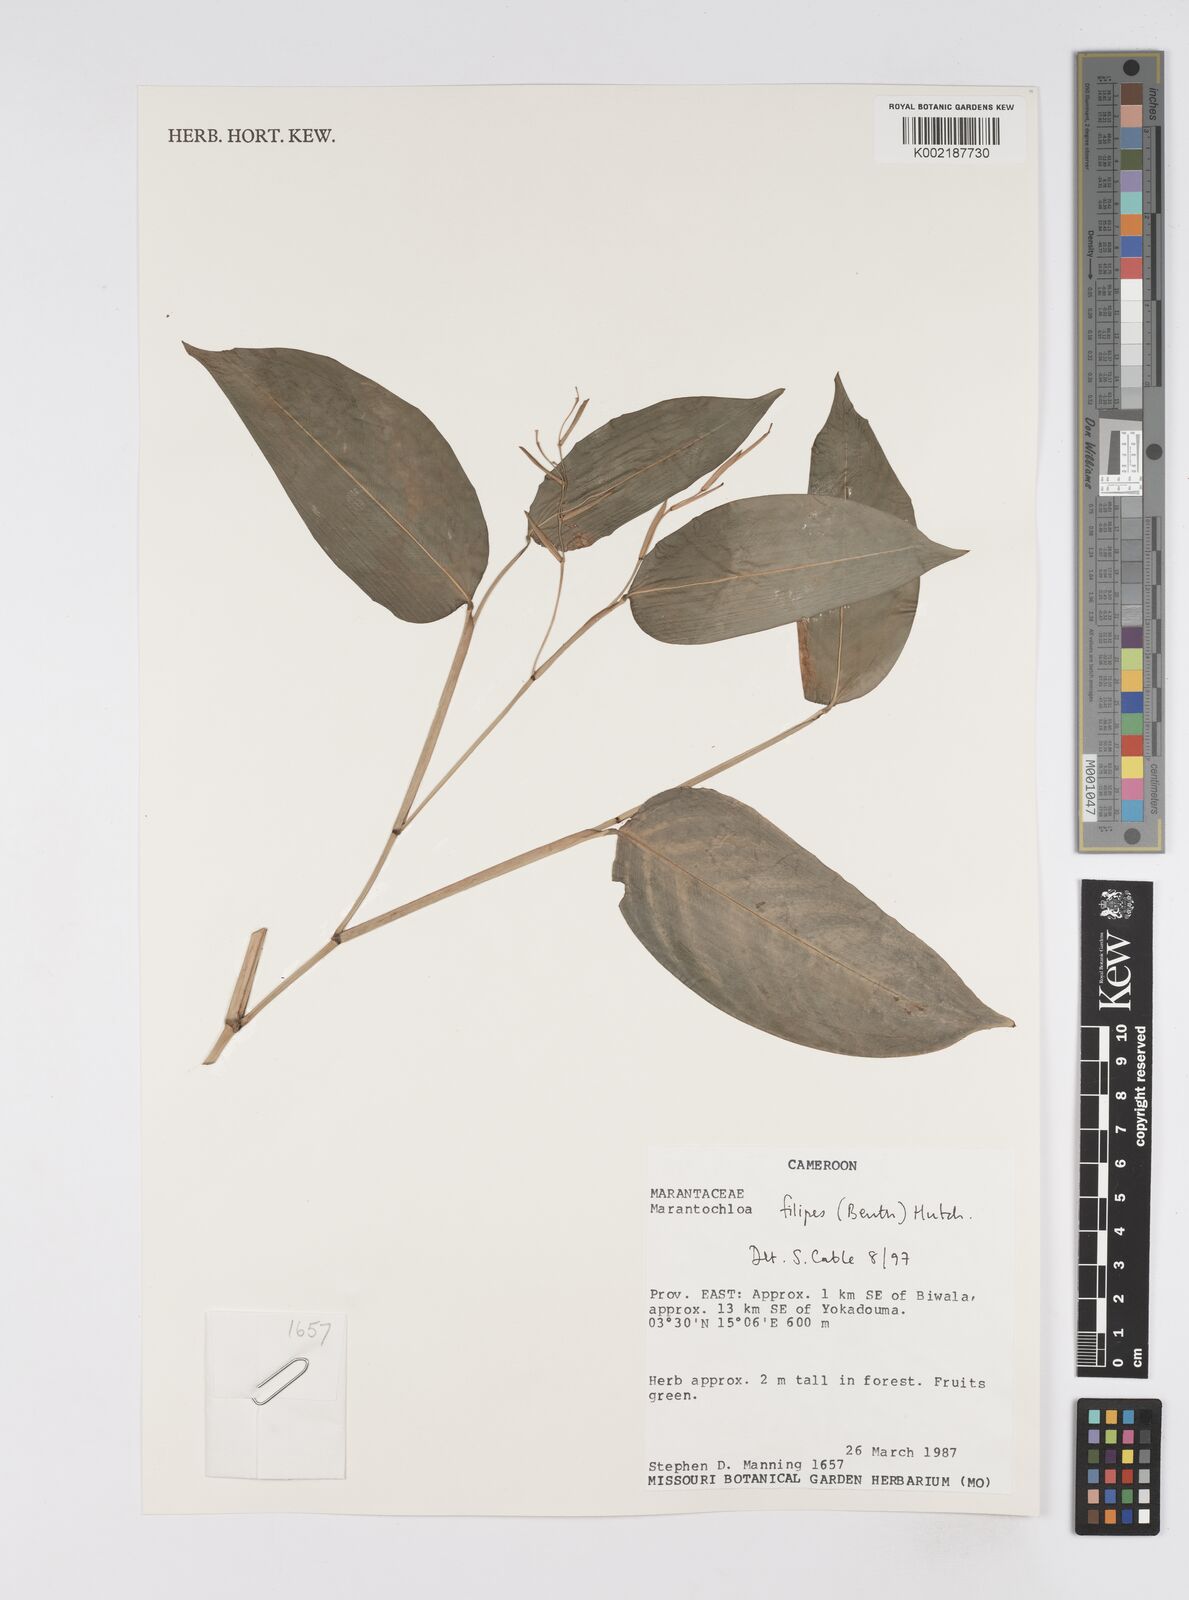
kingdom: Plantae
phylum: Tracheophyta
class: Liliopsida
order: Zingiberales
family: Marantaceae
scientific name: Marantaceae
